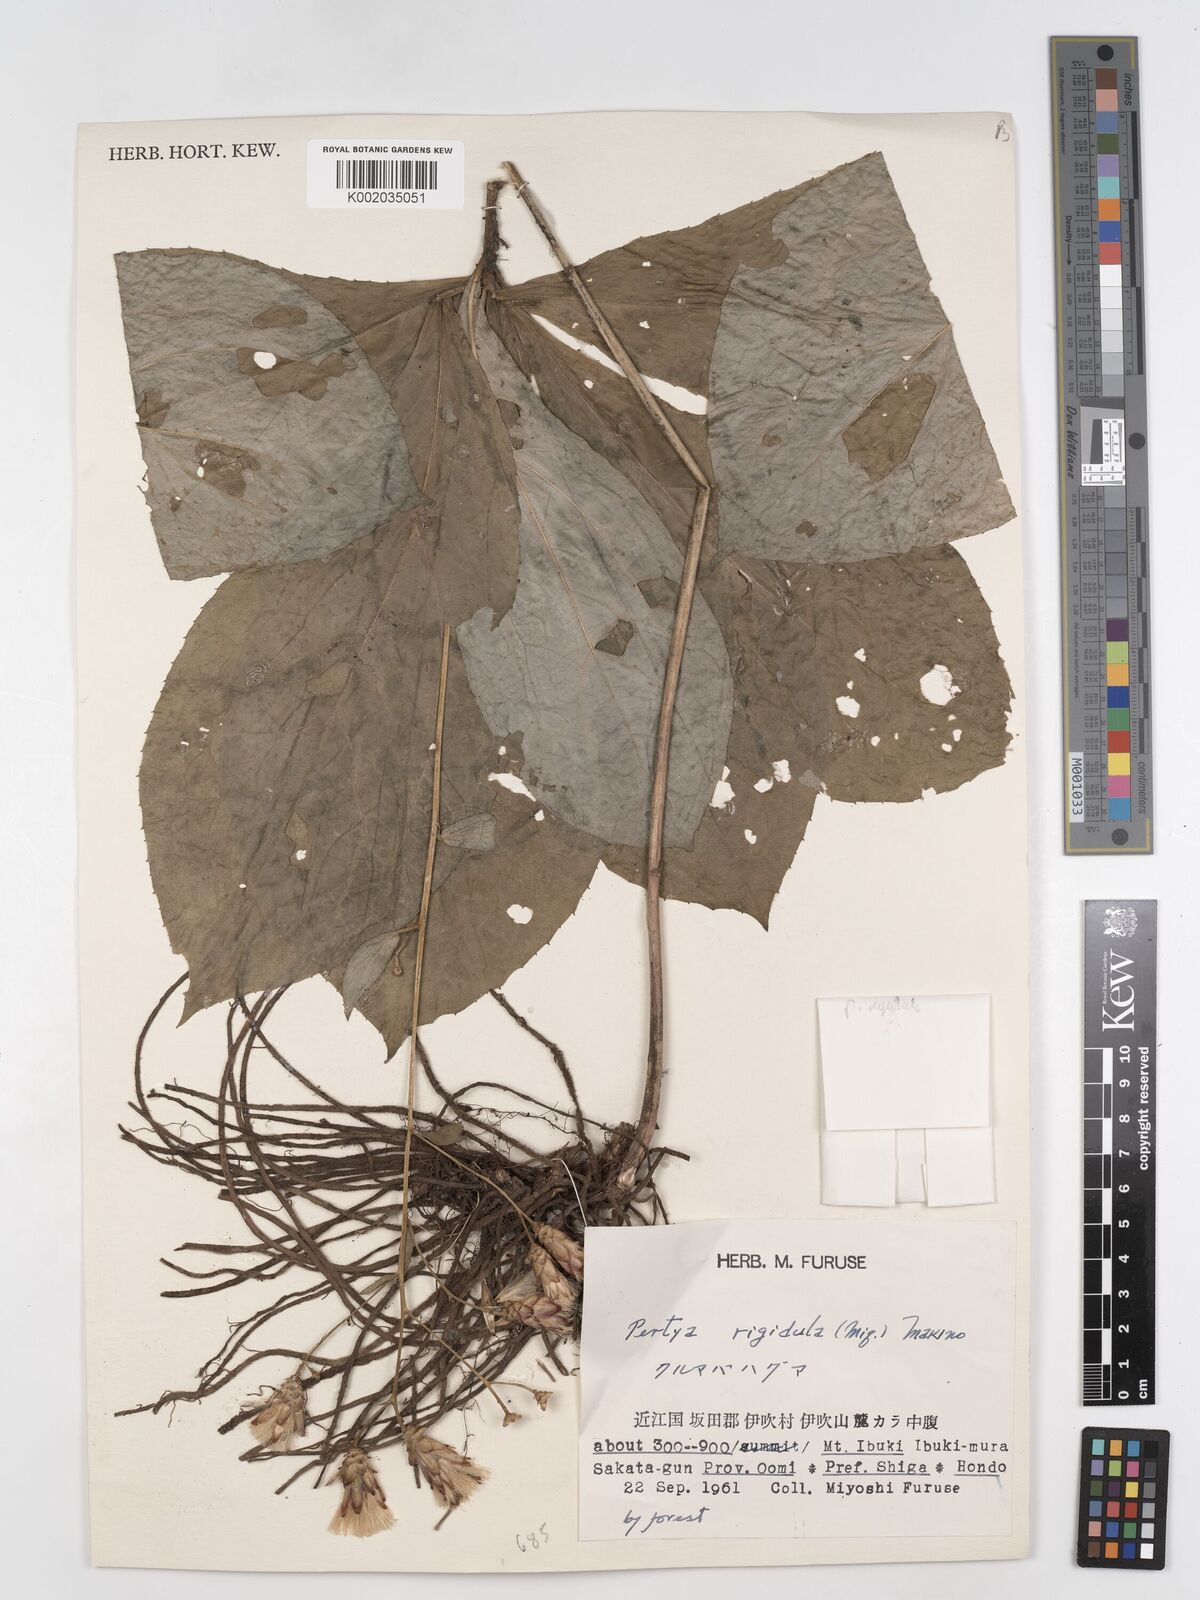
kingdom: Plantae
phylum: Tracheophyta
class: Magnoliopsida
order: Asterales
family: Asteraceae
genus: Pertya
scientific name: Pertya rigidula
